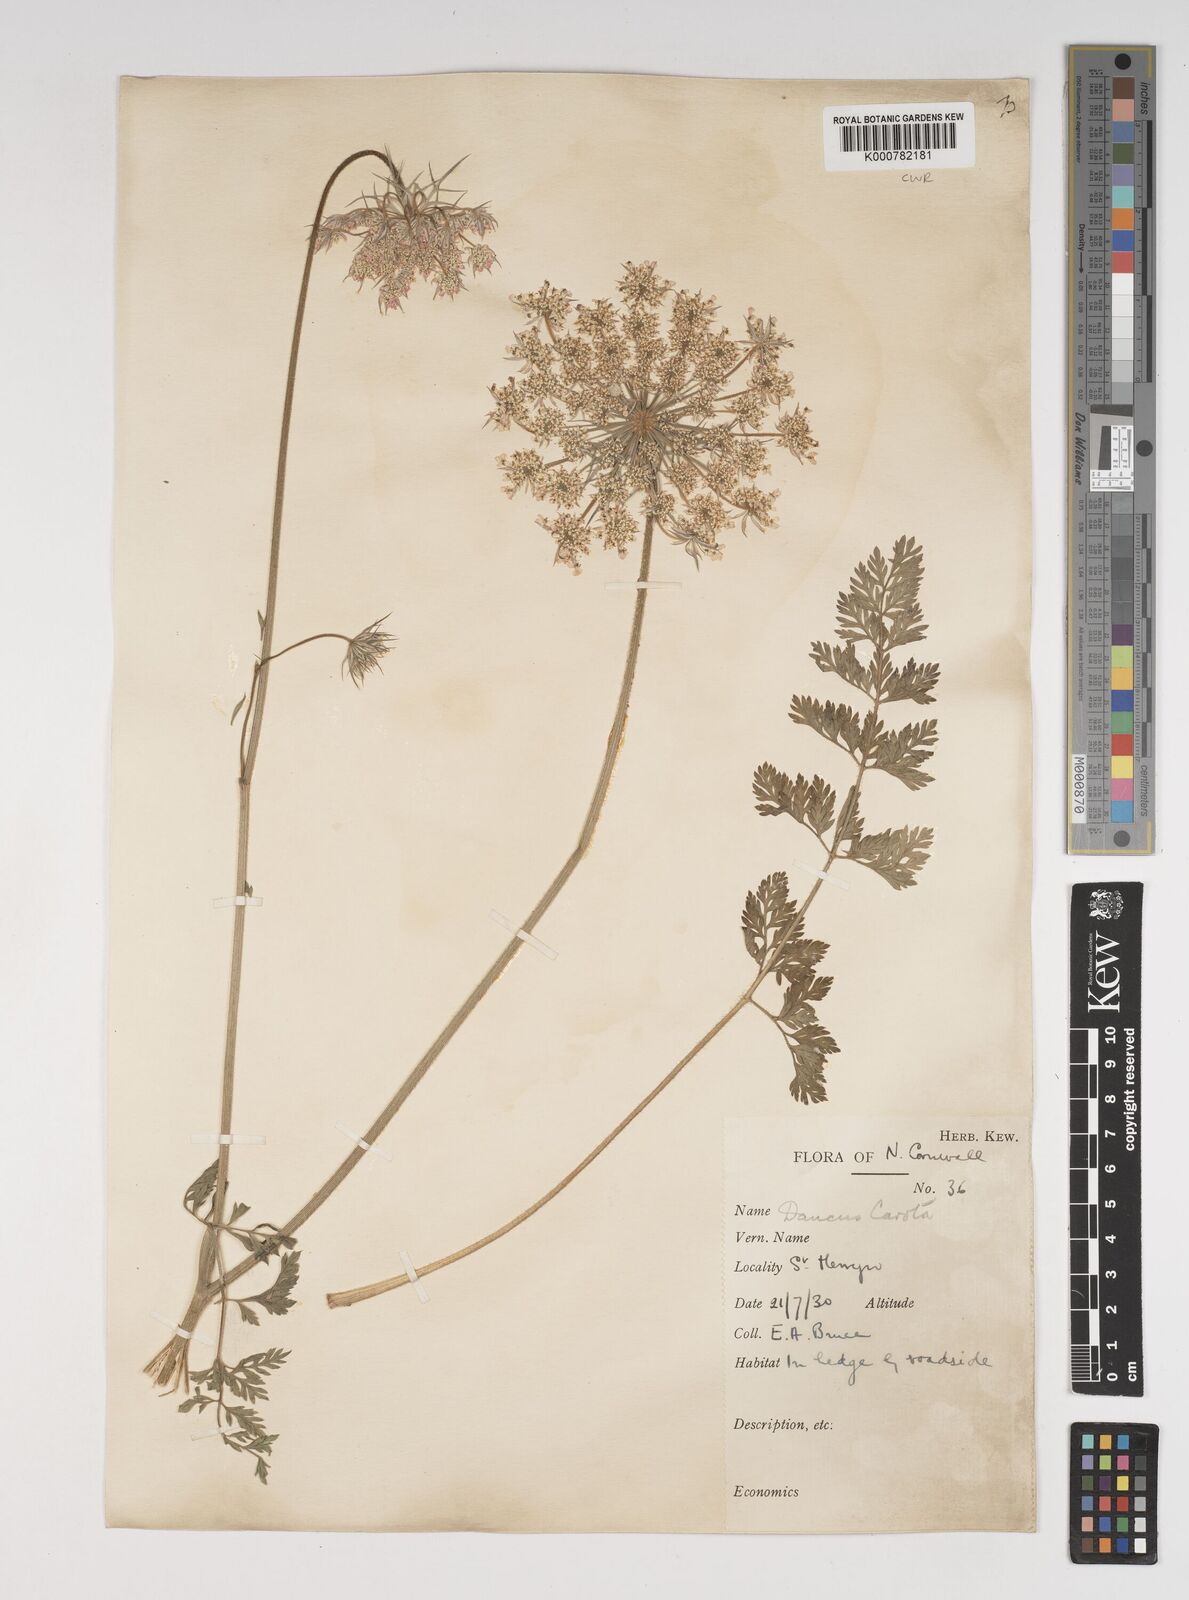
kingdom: Plantae
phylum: Tracheophyta
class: Magnoliopsida
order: Apiales
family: Apiaceae
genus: Daucus
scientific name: Daucus carota
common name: Wild carrot
